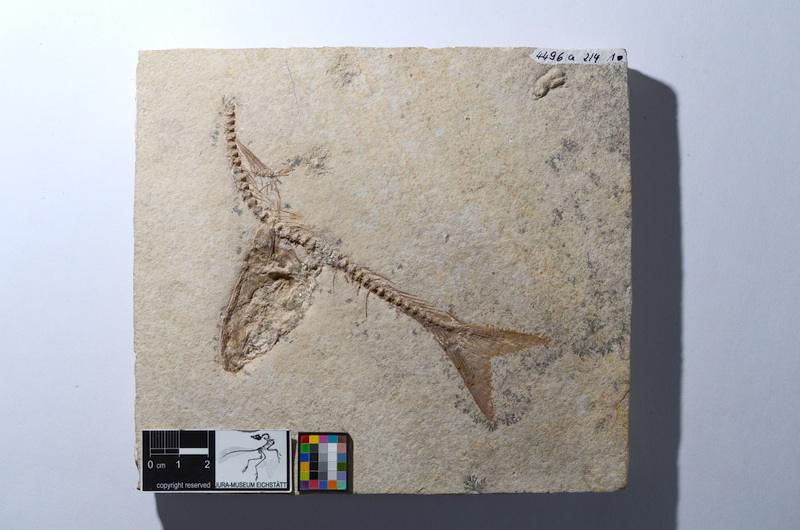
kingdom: Animalia
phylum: Chordata
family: Ascalaboidae
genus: Tharsis
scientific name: Tharsis dubius
